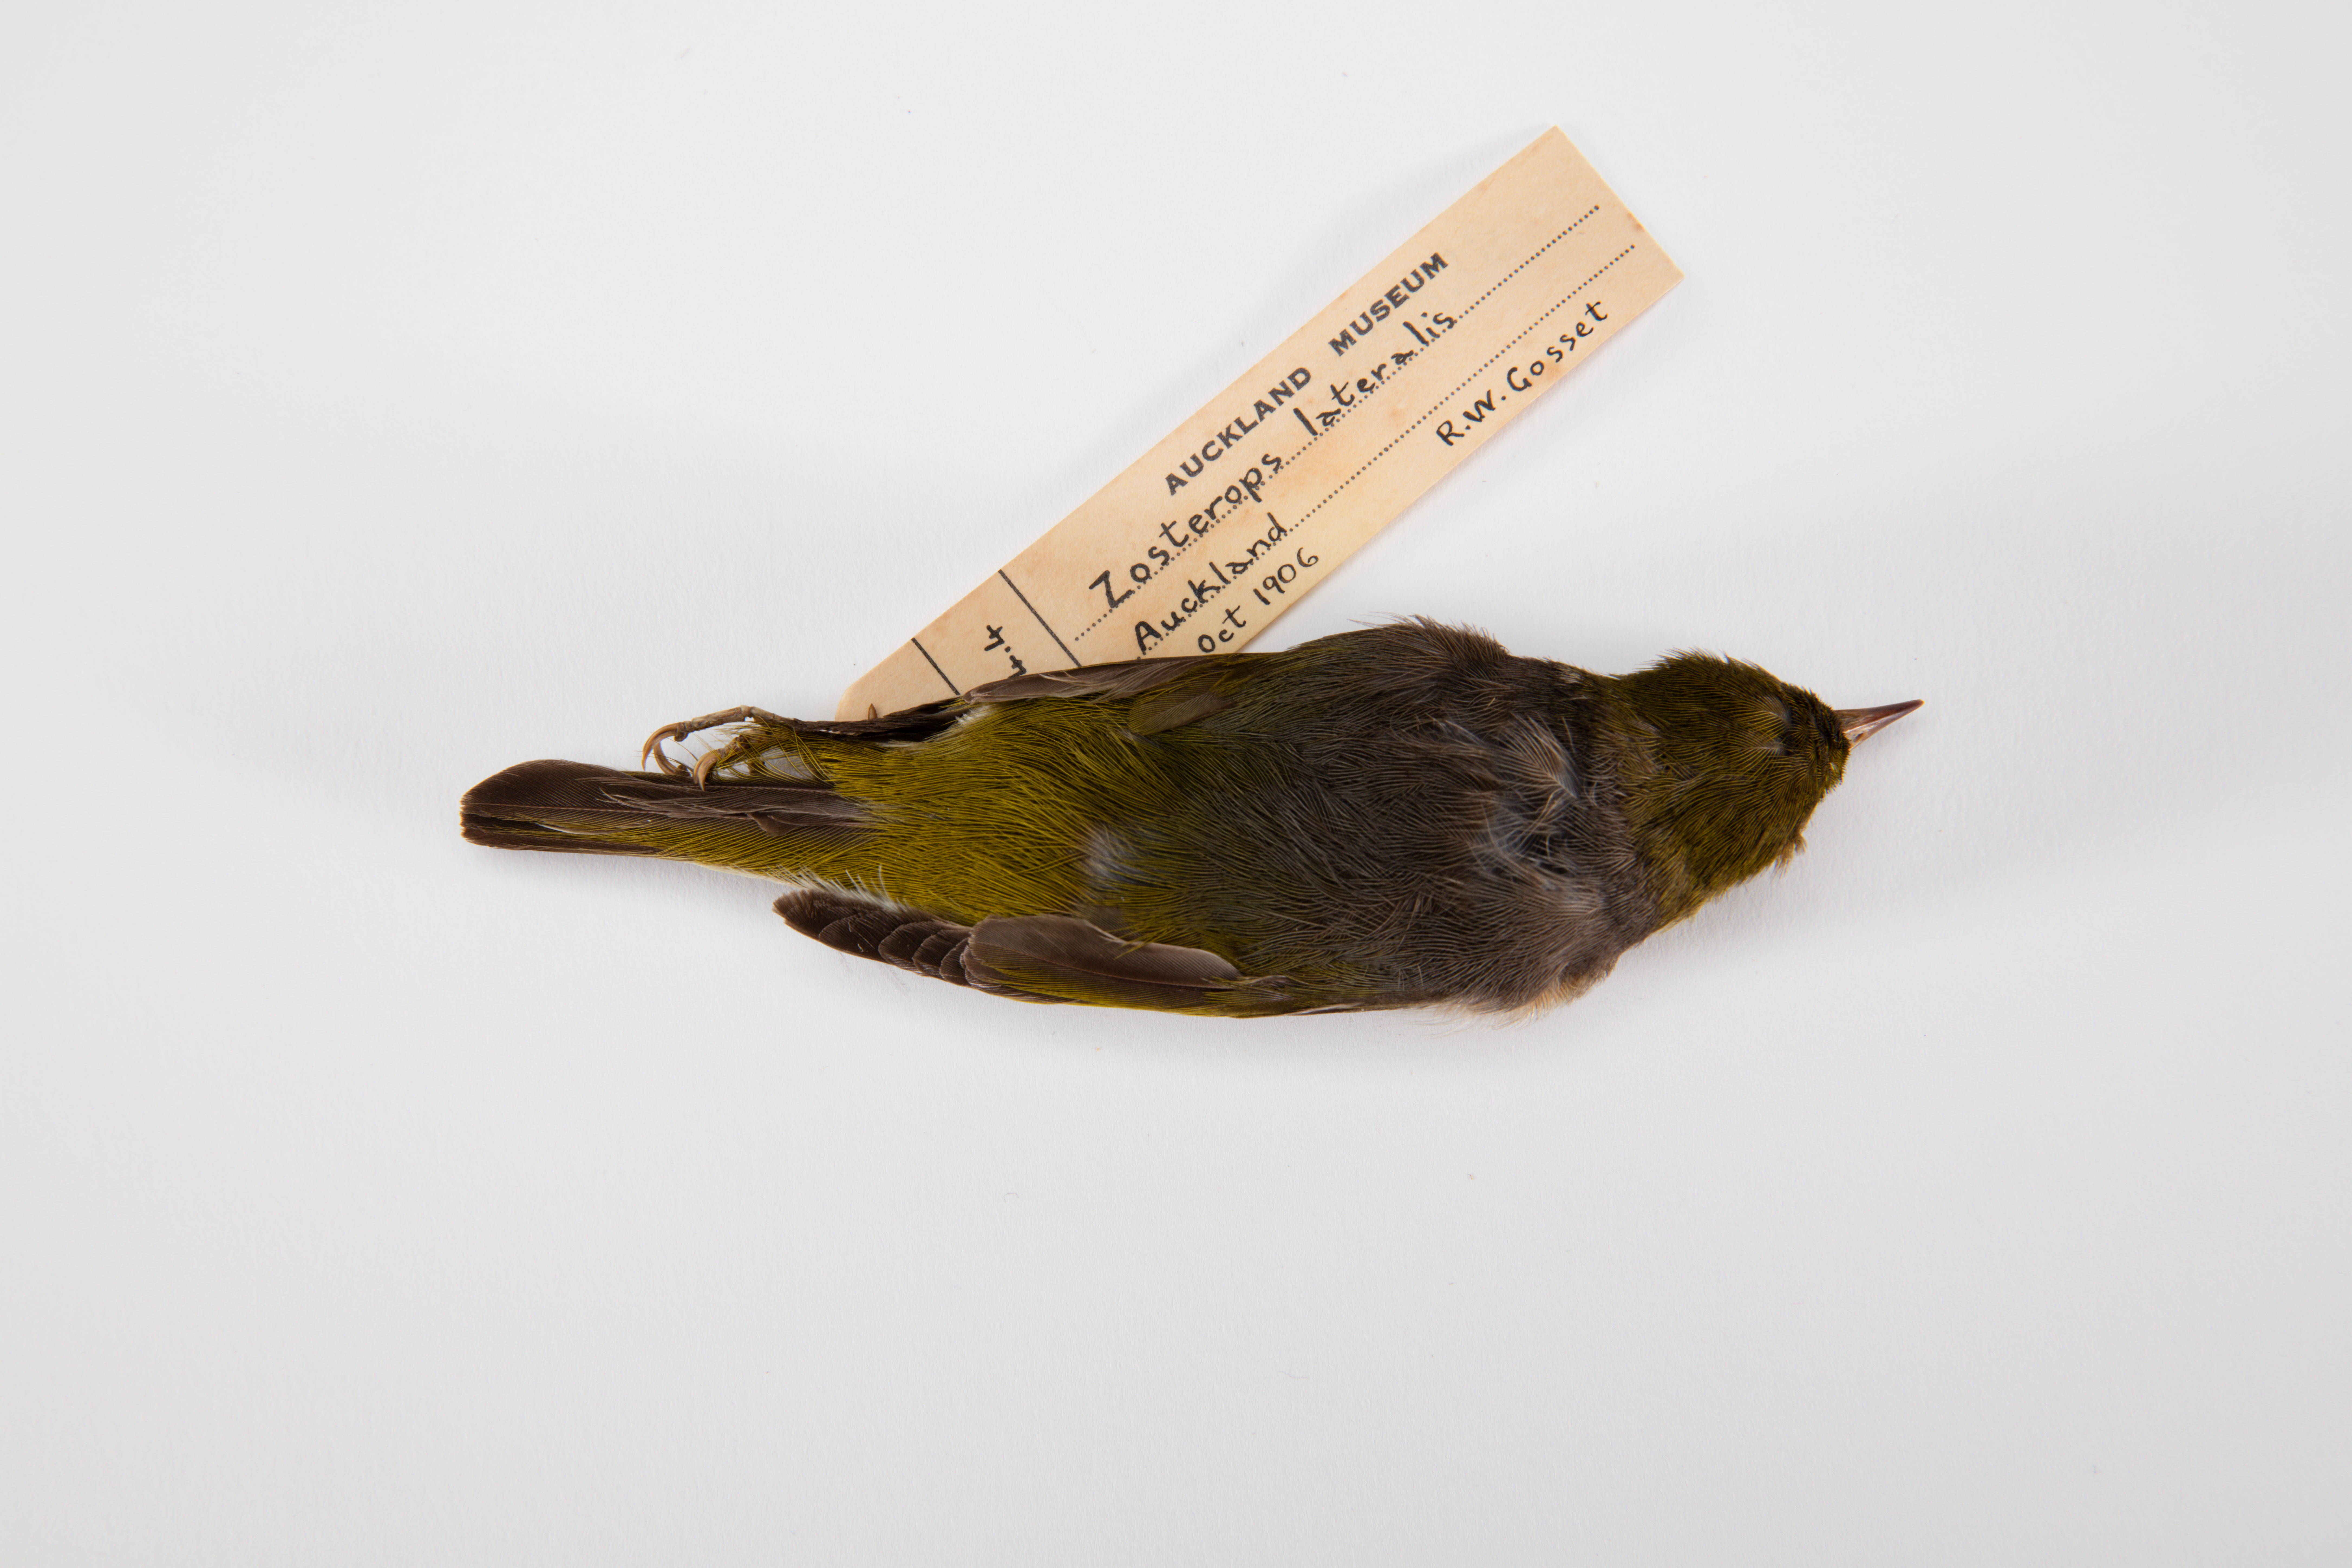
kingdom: Animalia
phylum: Chordata
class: Aves
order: Passeriformes
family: Zosteropidae
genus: Zosterops
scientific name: Zosterops lateralis
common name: Silvereye
